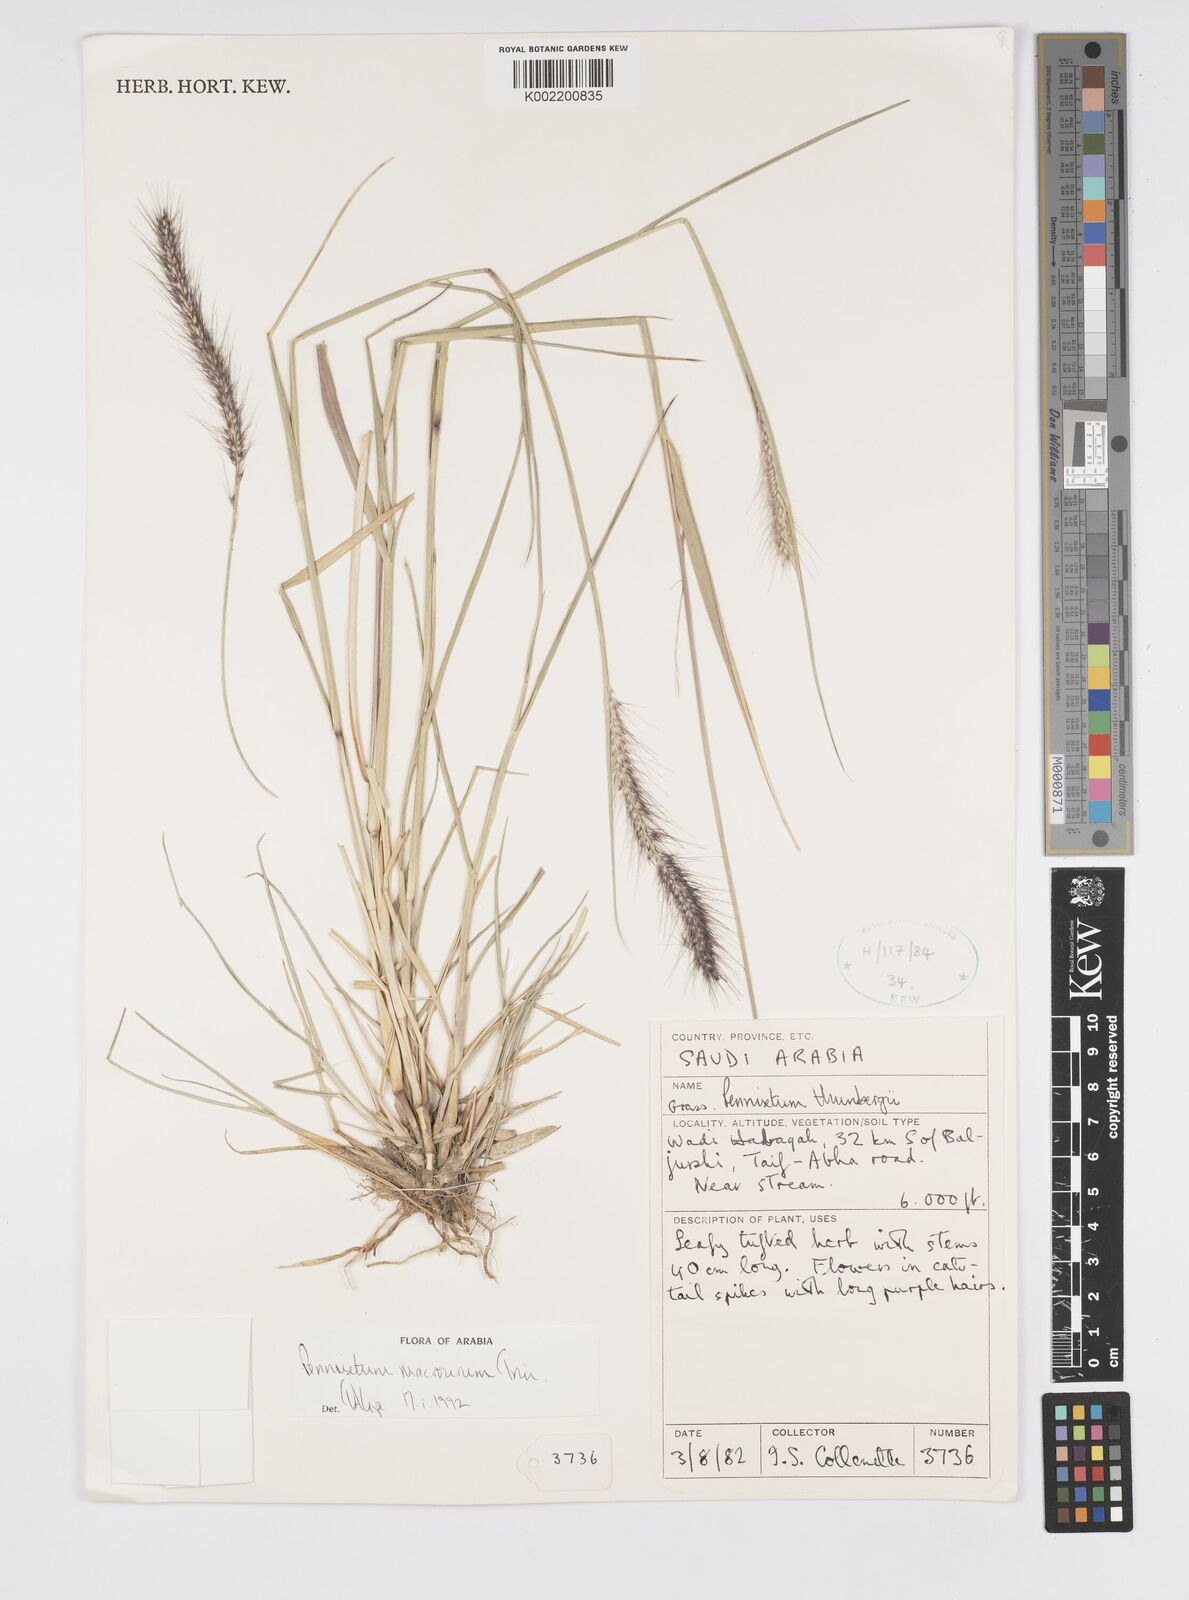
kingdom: Plantae
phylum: Tracheophyta
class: Liliopsida
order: Poales
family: Poaceae
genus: Cenchrus
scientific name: Cenchrus caudatus
